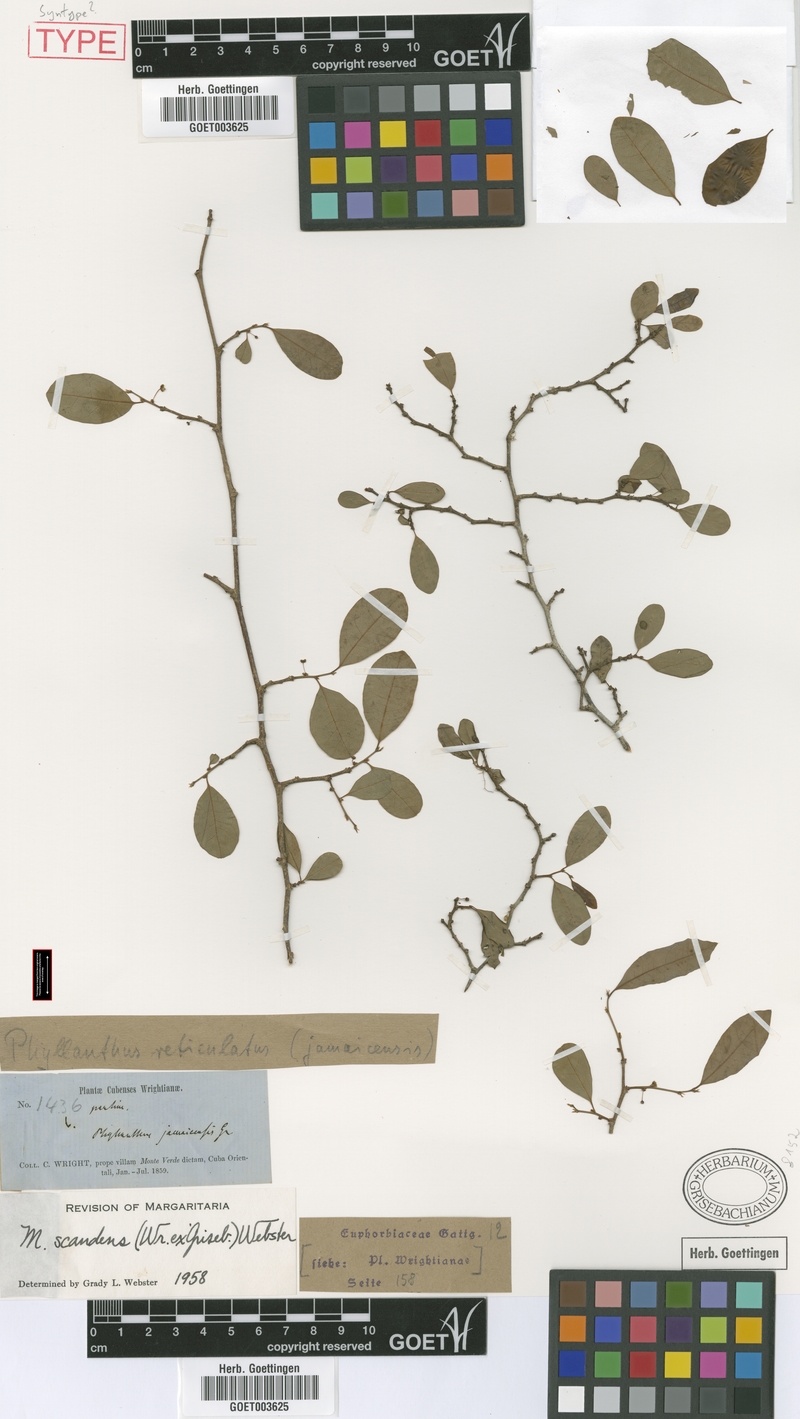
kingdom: Plantae
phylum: Tracheophyta
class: Magnoliopsida
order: Malpighiales
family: Phyllanthaceae
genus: Margaritaria
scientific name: Margaritaria scandens
